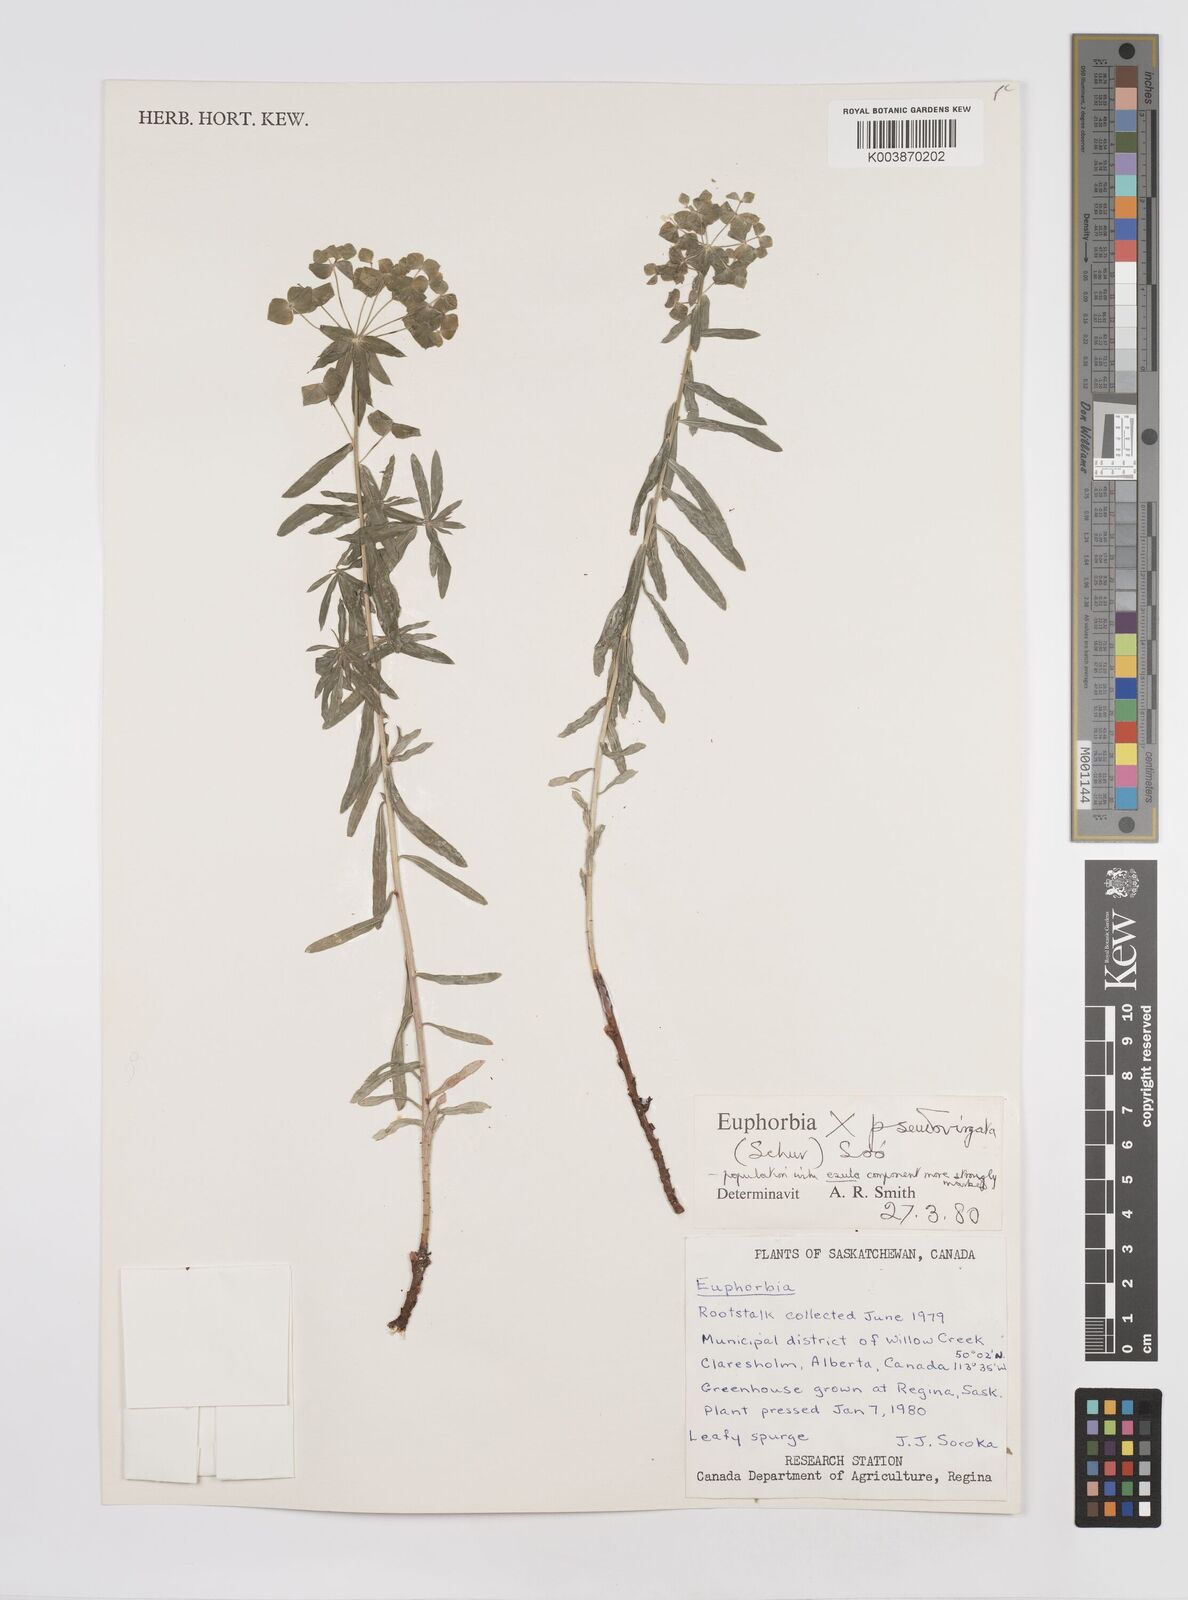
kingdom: Plantae
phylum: Tracheophyta
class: Magnoliopsida
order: Malpighiales
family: Euphorbiaceae
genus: Euphorbia
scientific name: Euphorbia virgata
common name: Leafy spurge
